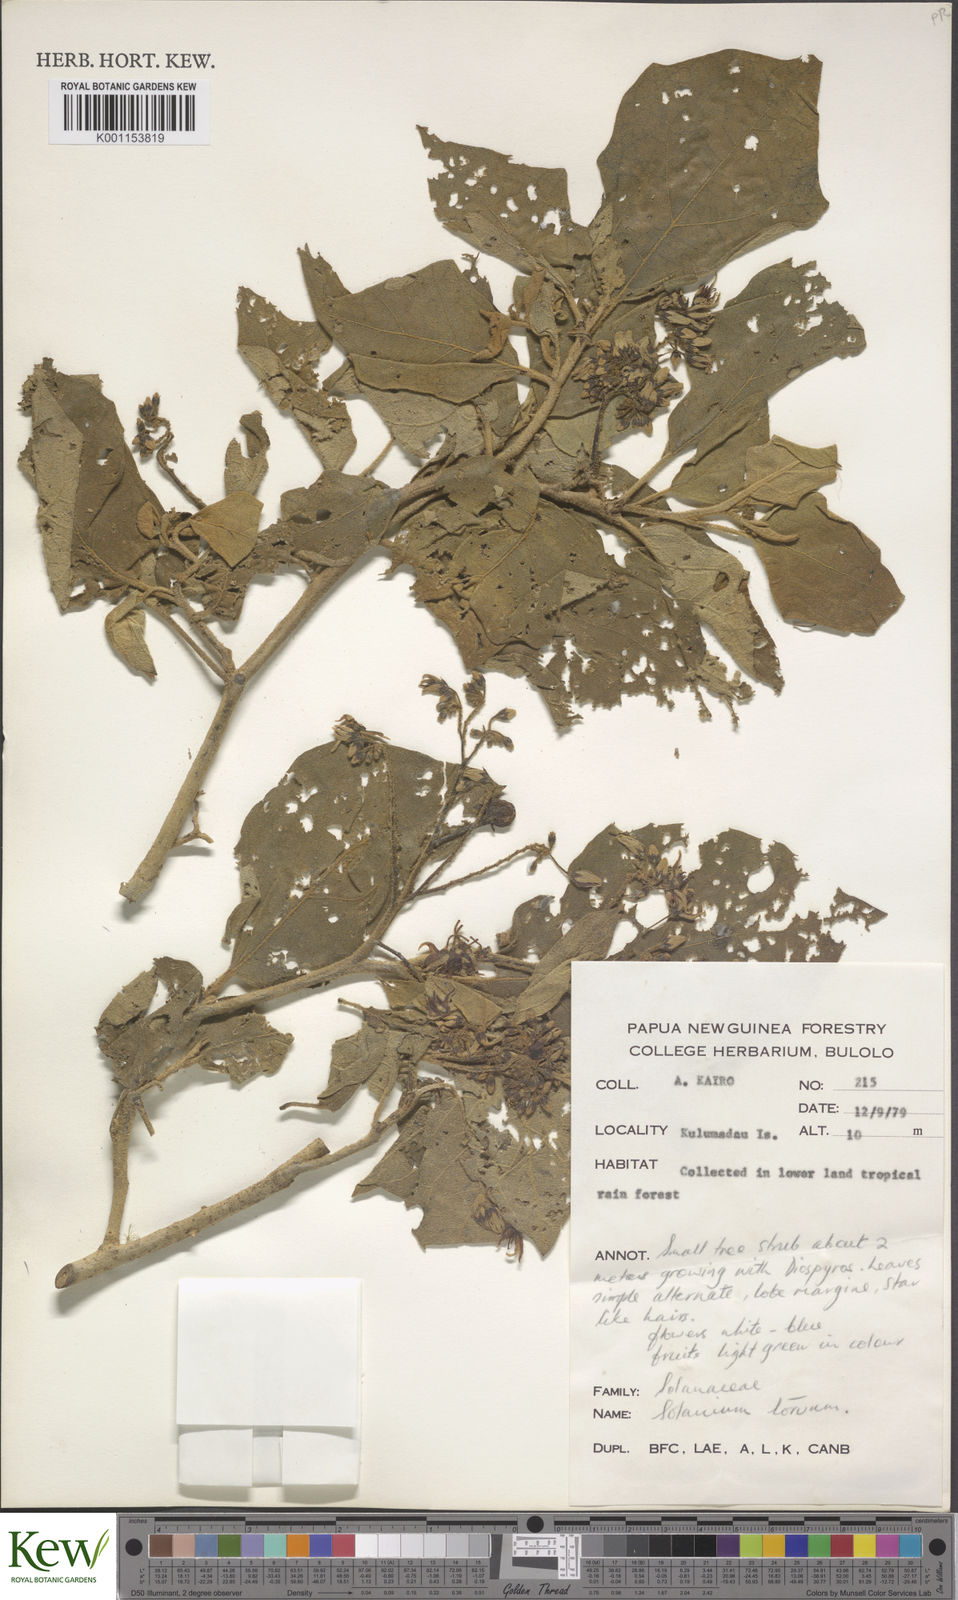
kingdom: Plantae
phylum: Tracheophyta
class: Magnoliopsida
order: Solanales
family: Solanaceae
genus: Solanum
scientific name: Solanum torvum
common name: Turkey berry
